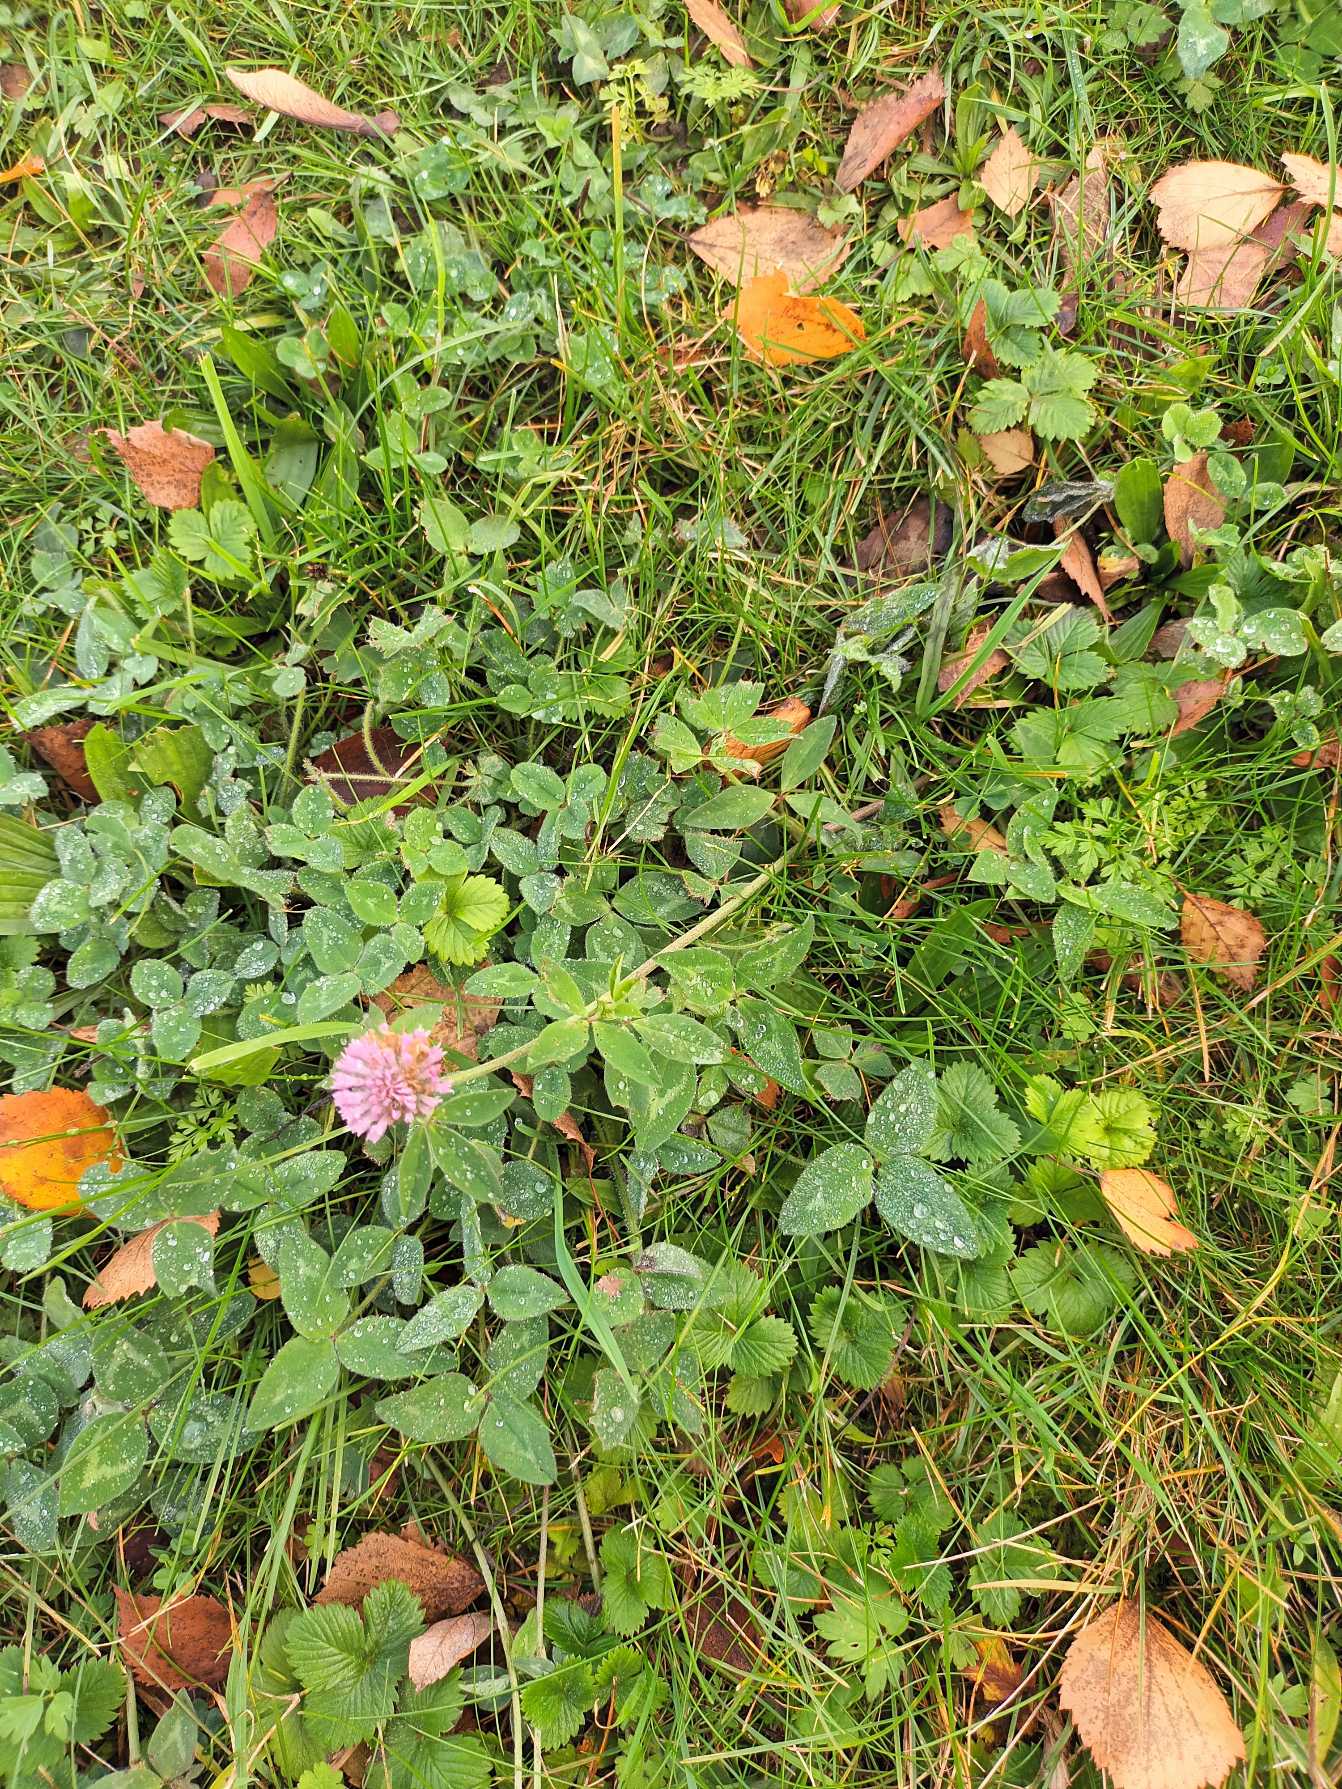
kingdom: Plantae
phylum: Tracheophyta
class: Magnoliopsida
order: Fabales
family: Fabaceae
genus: Trifolium
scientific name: Trifolium pratense
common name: Rød-kløver
